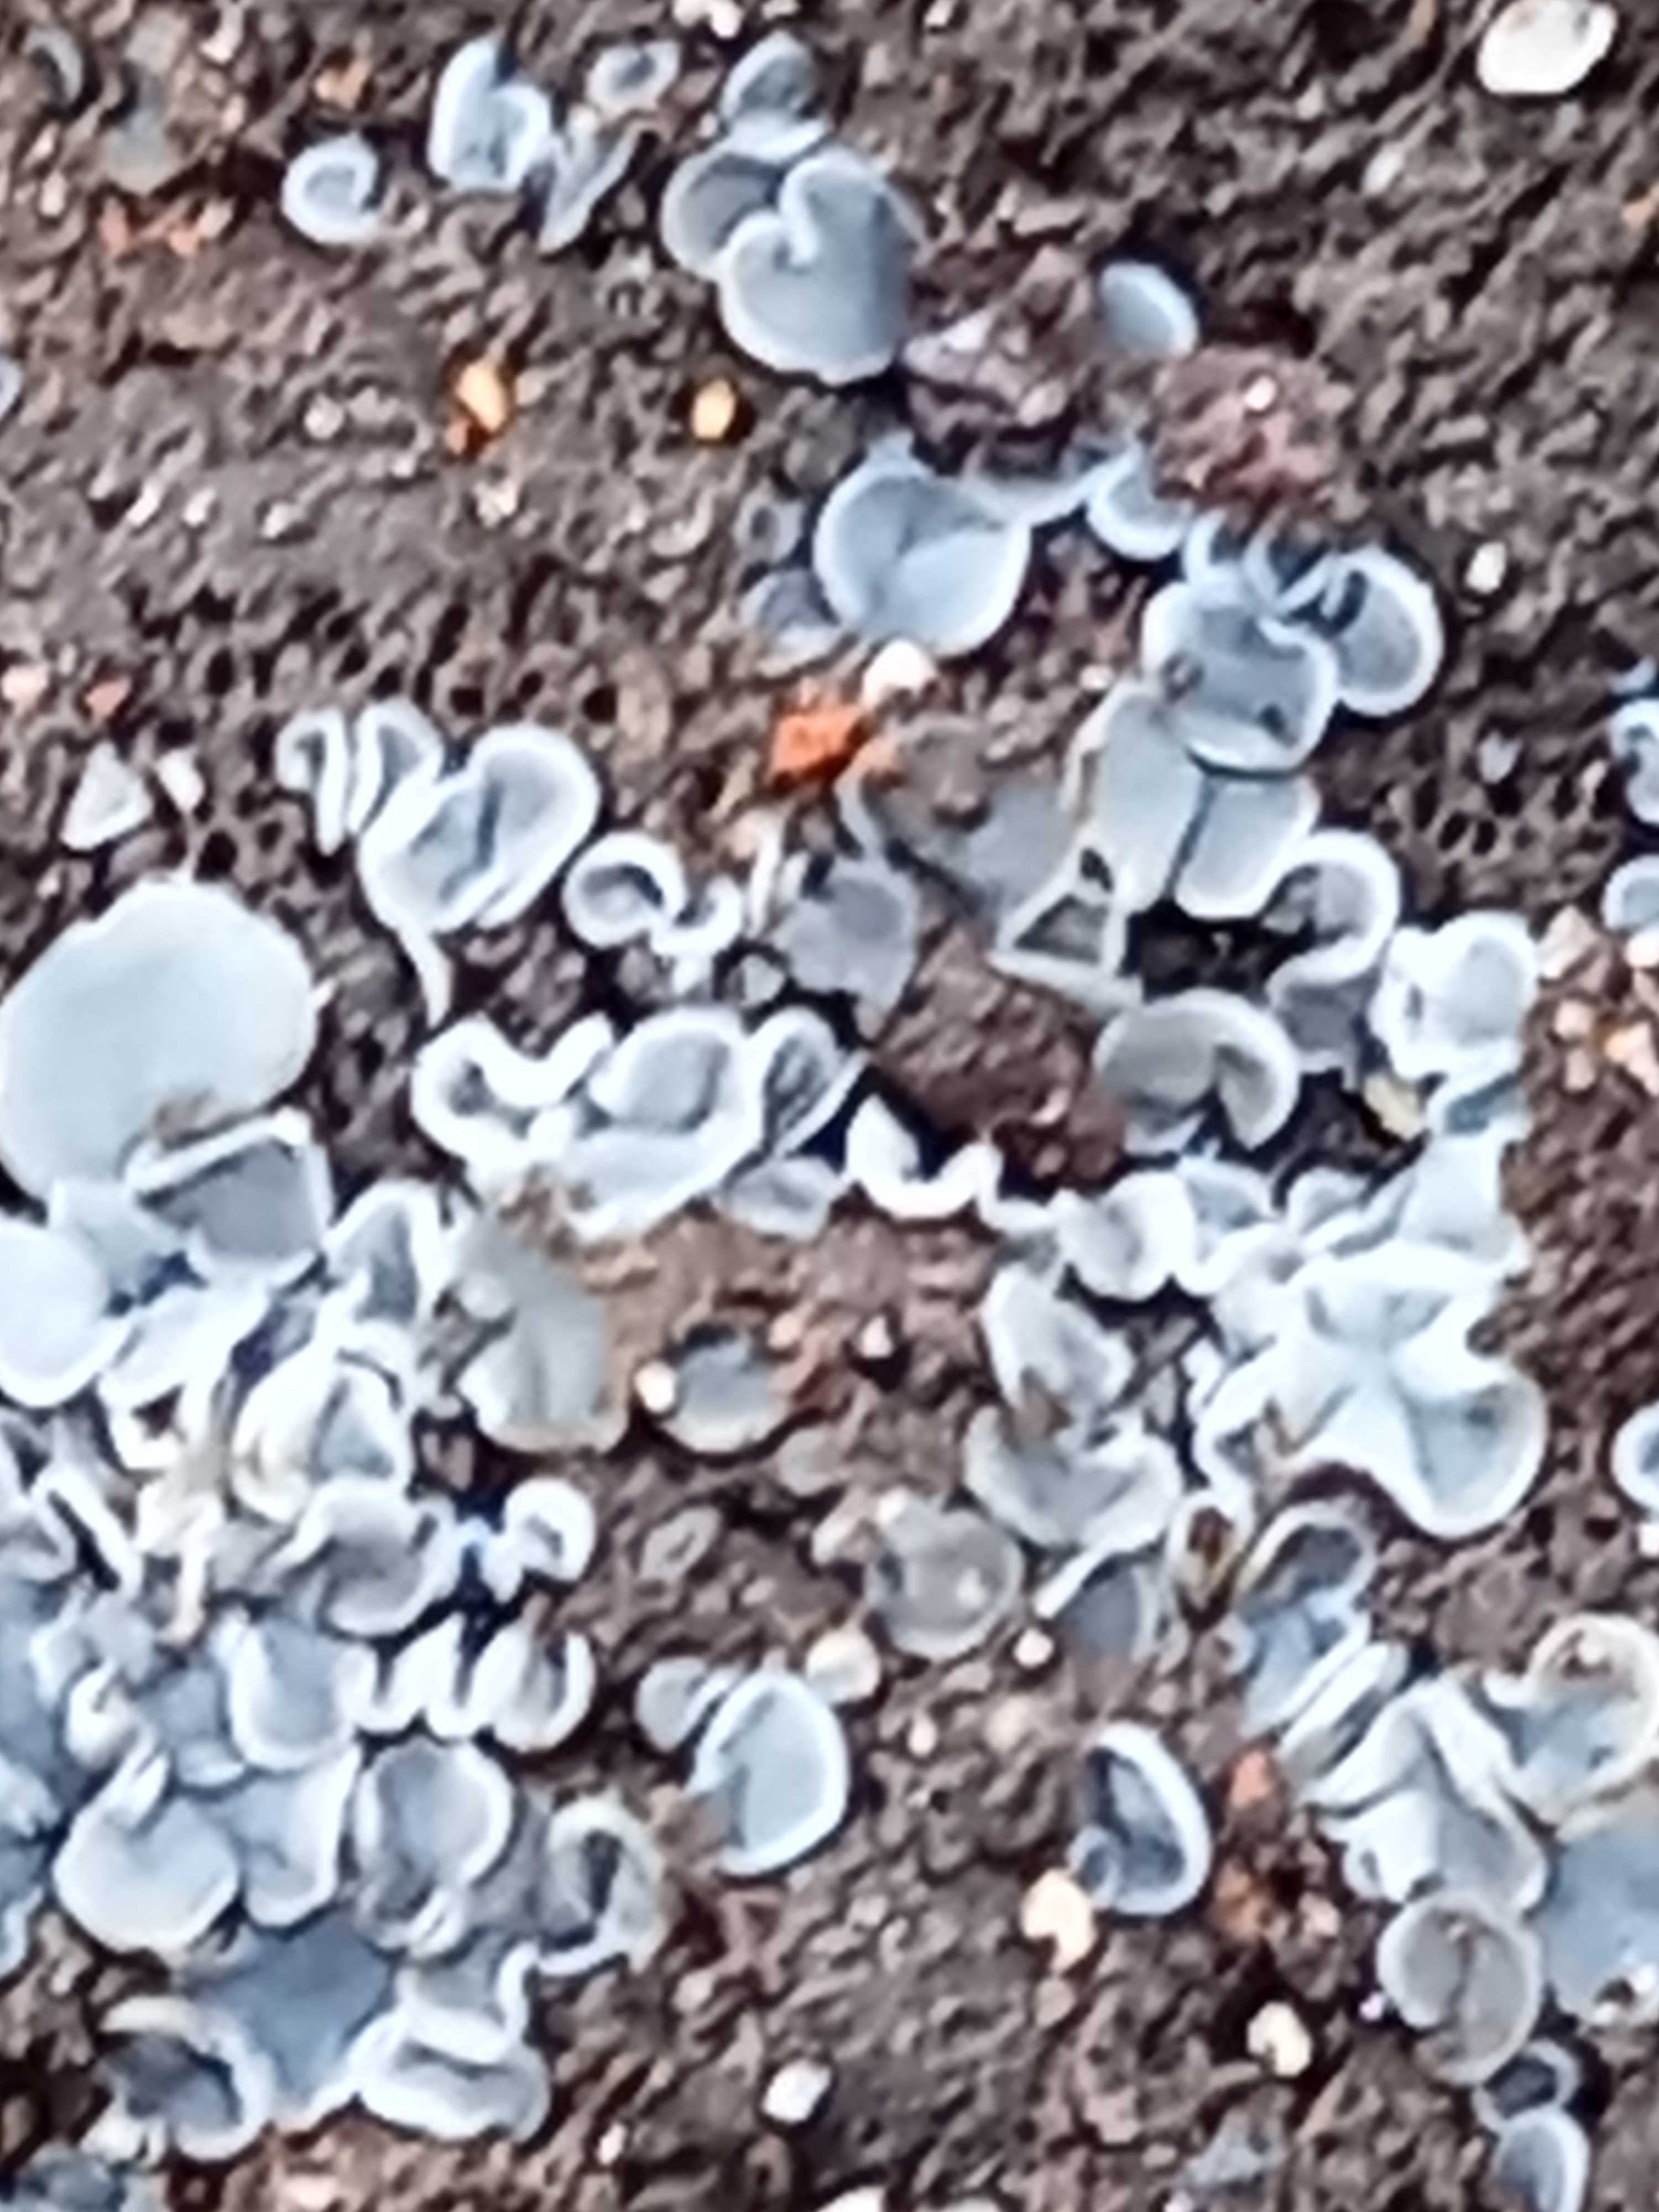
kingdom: Fungi
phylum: Ascomycota
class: Leotiomycetes
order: Helotiales
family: Mollisiaceae
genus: Mollisia
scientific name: Mollisia
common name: gråskive
